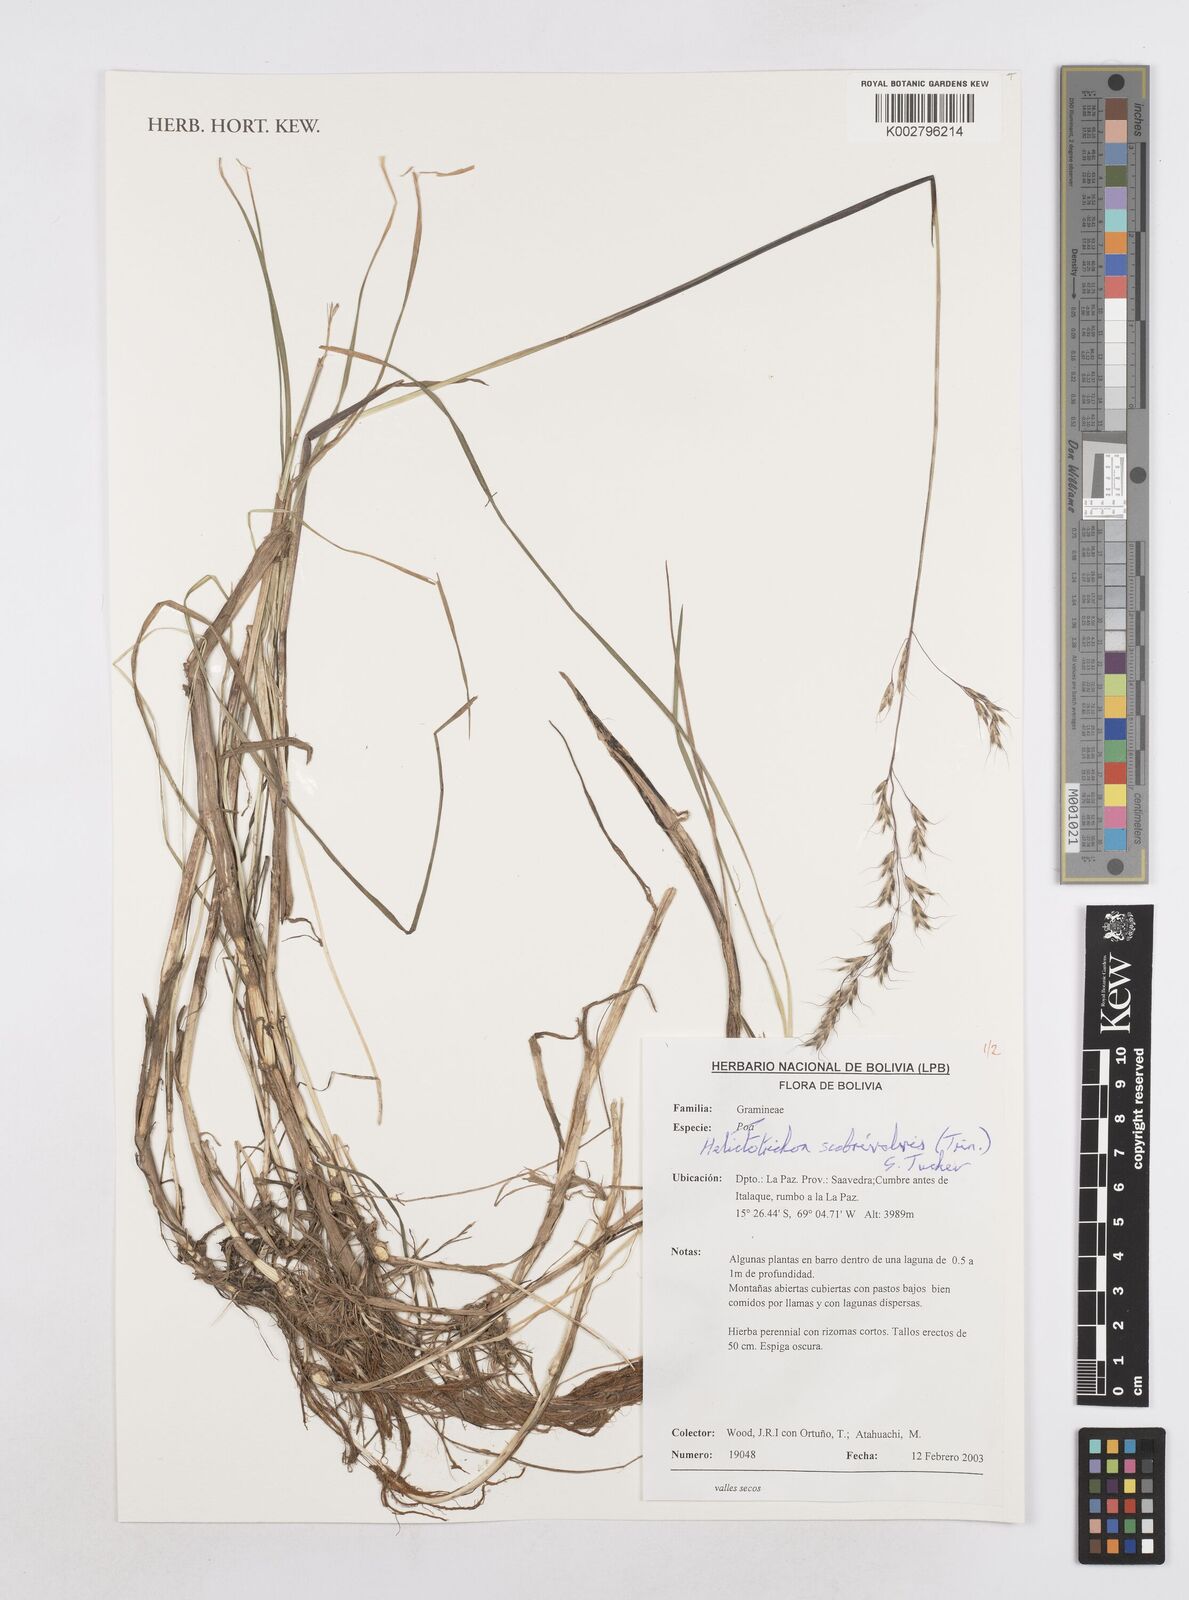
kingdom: Plantae
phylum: Tracheophyta
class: Liliopsida
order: Poales
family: Poaceae
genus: Amphibromus
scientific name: Amphibromus scabrivalvis
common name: Swamp wallaby grass
